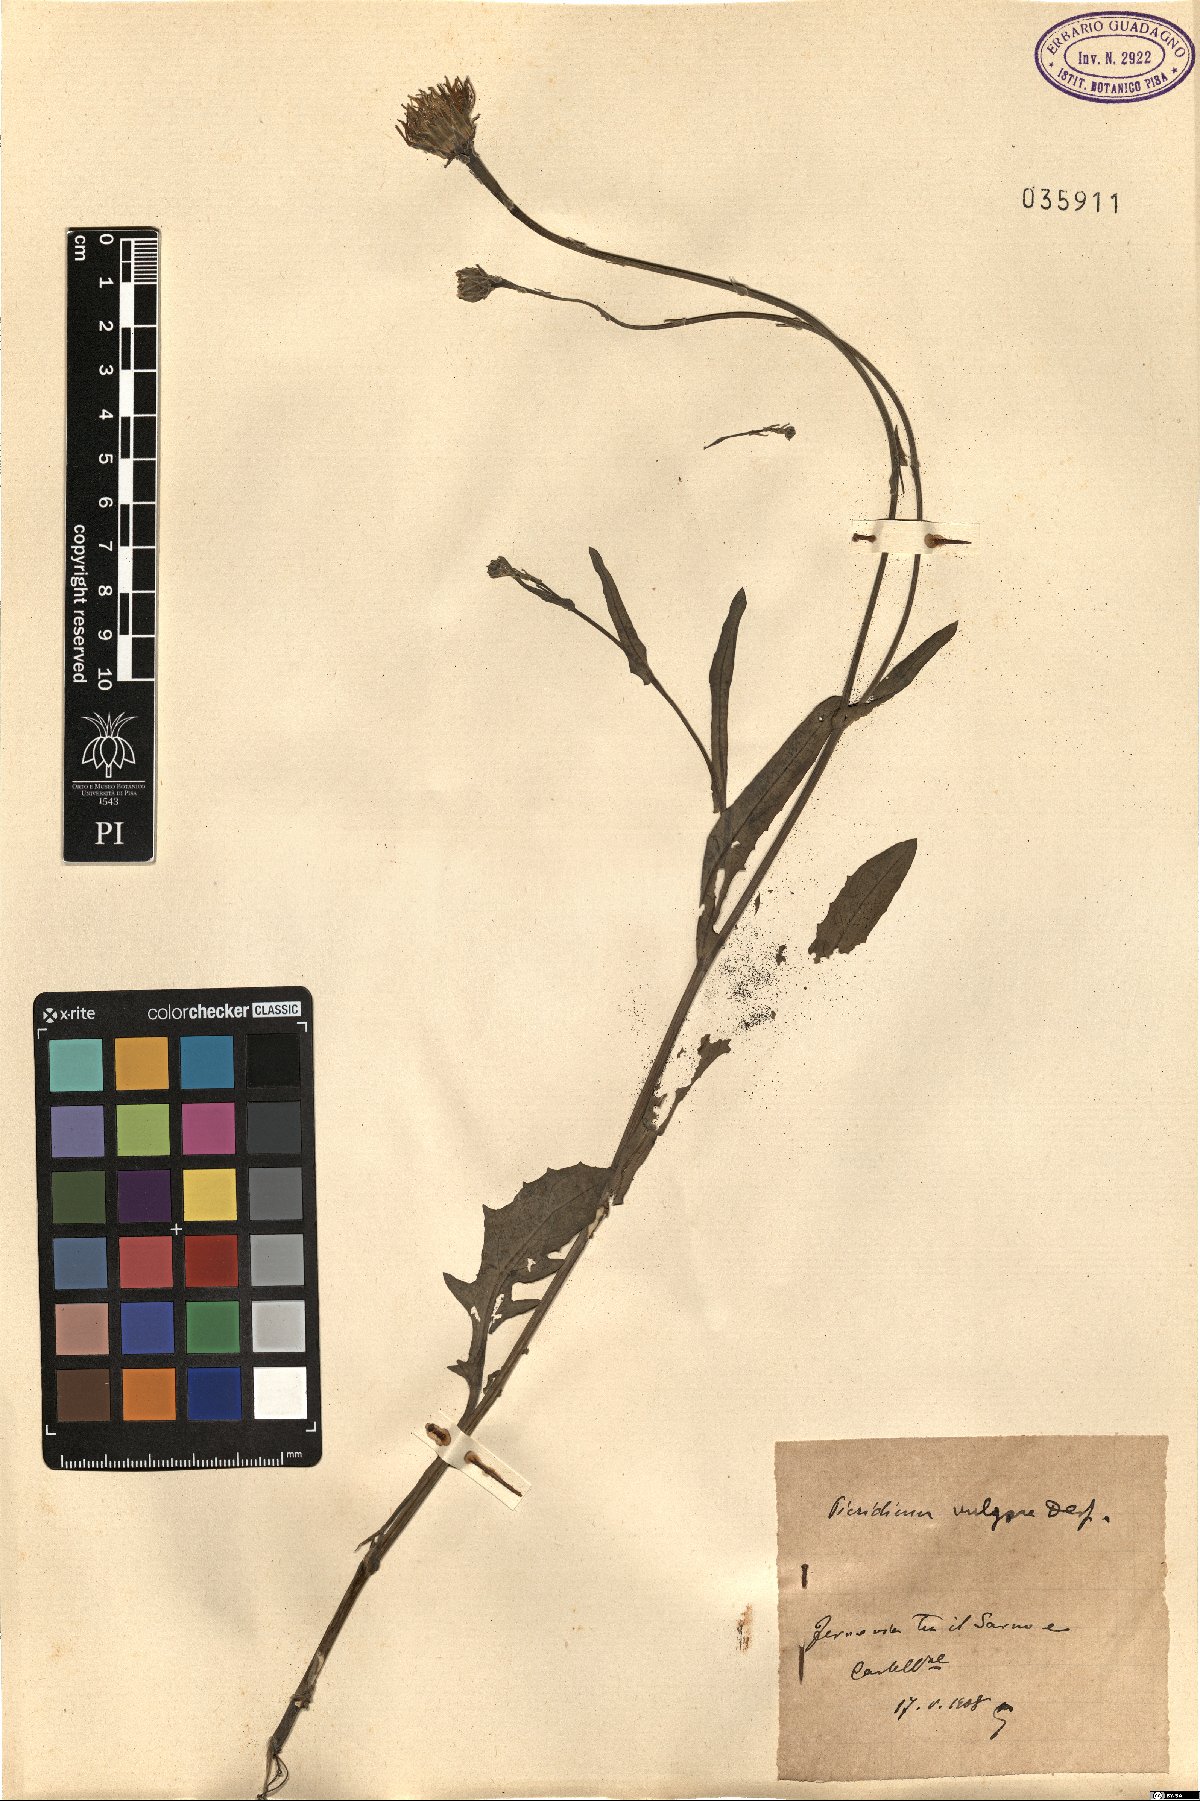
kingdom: Plantae
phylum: Tracheophyta
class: Magnoliopsida
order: Asterales
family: Asteraceae
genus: Reichardia
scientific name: Reichardia picroides
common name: Common brighteyes
